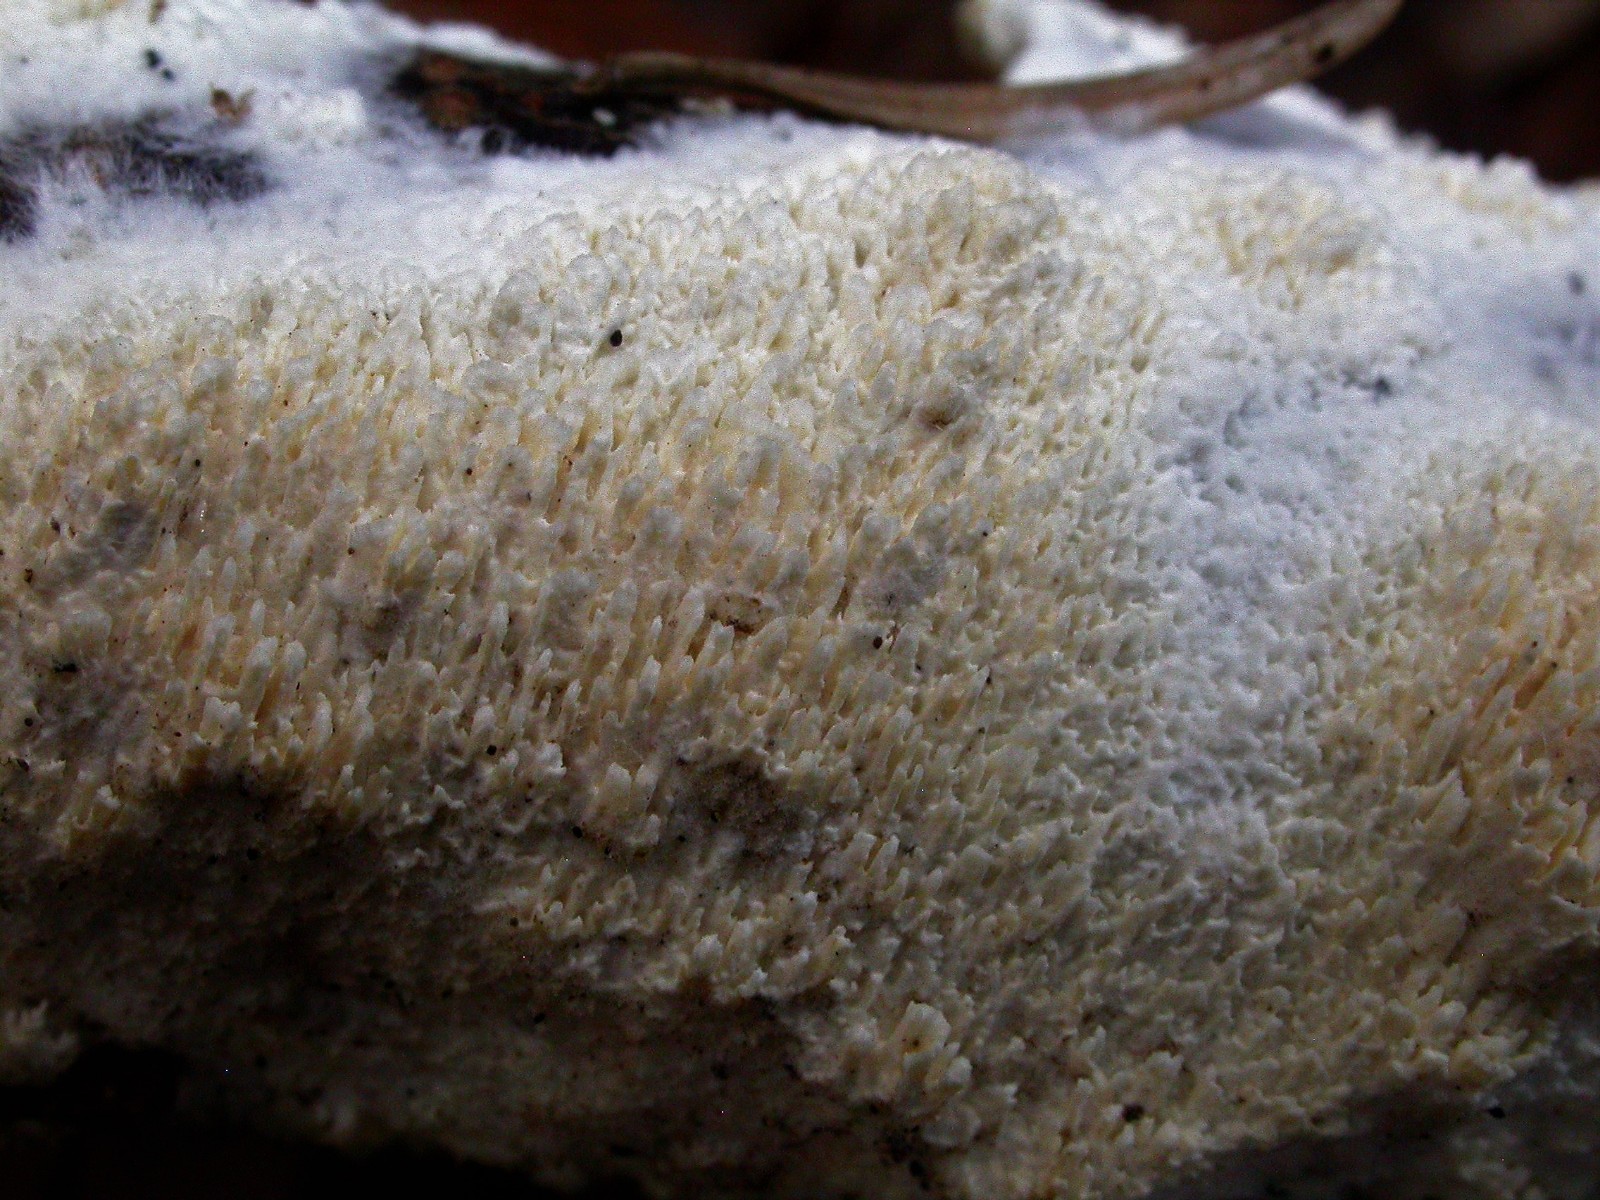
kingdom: Fungi
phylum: Basidiomycota
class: Agaricomycetes
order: Hymenochaetales
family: Schizoporaceae
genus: Schizopora
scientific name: Schizopora paradoxa
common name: hvid tandsvamp
